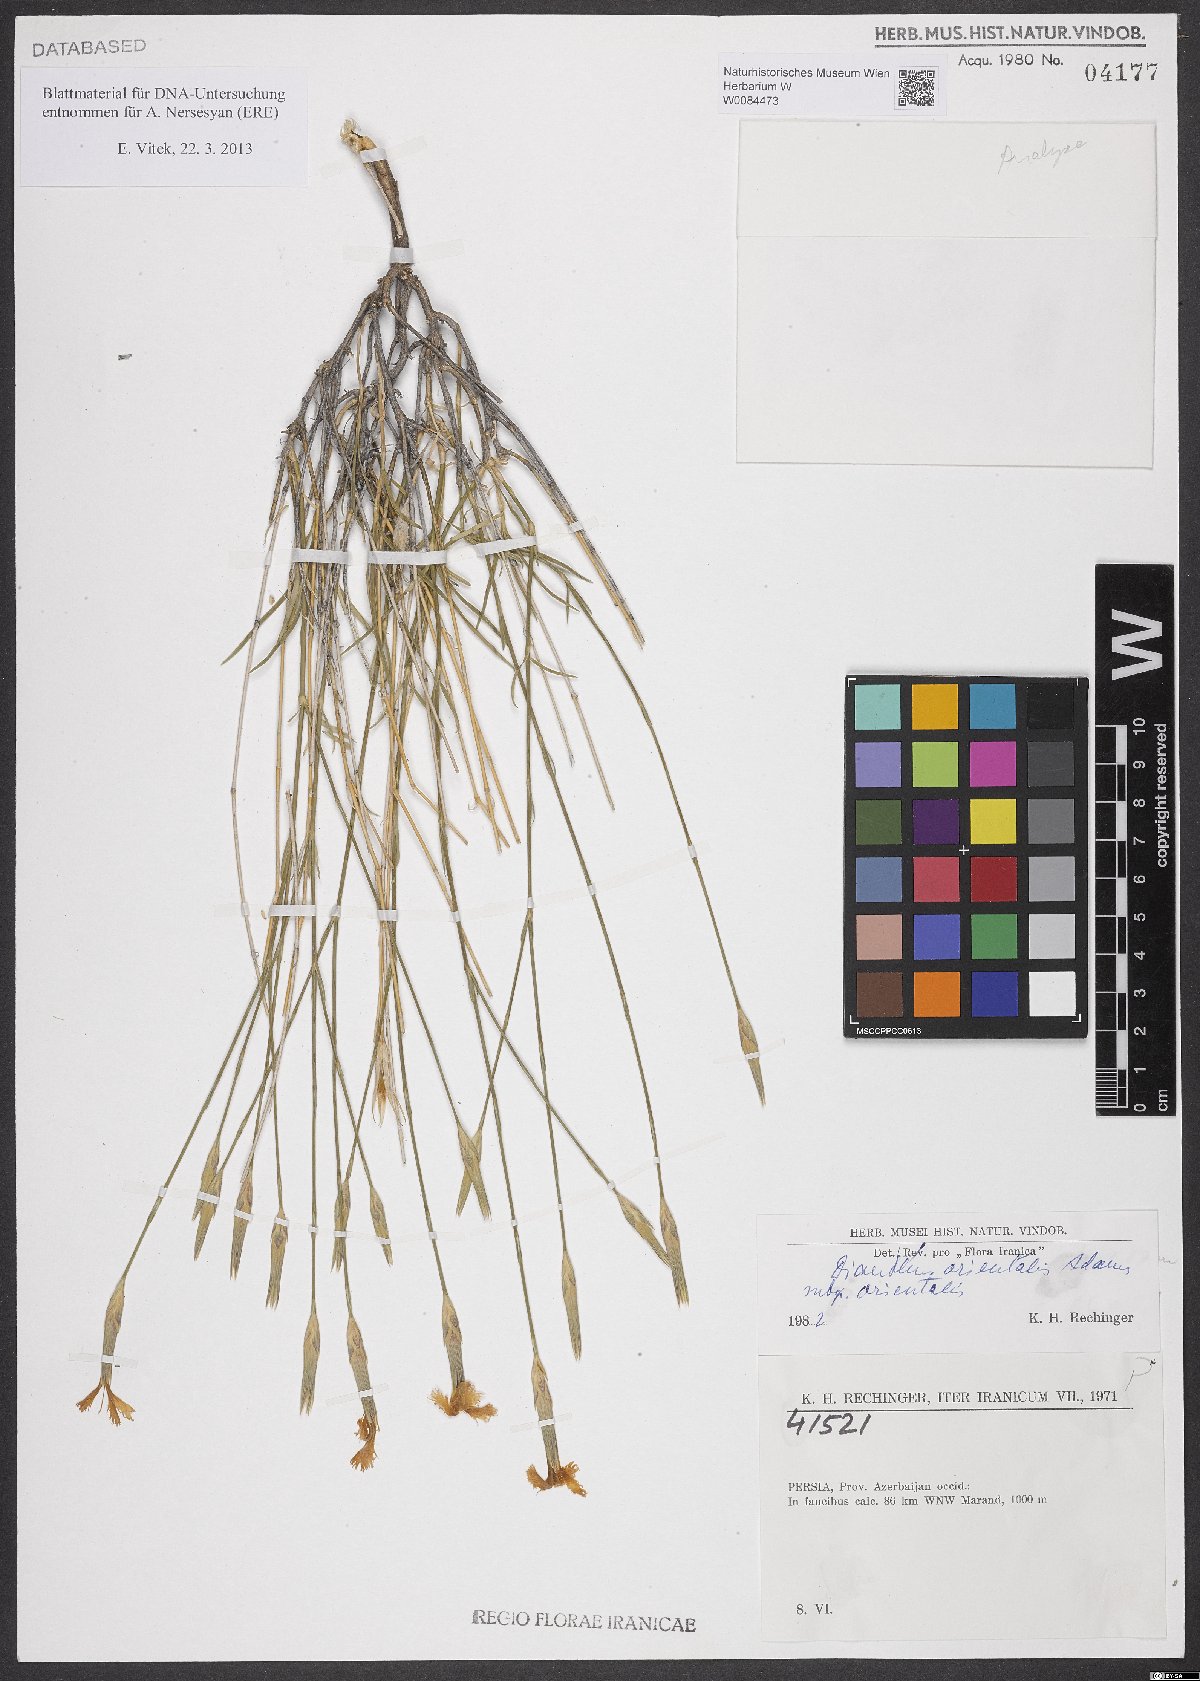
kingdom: Plantae
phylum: Tracheophyta
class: Magnoliopsida
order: Caryophyllales
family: Caryophyllaceae
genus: Dianthus
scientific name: Dianthus orientalis
